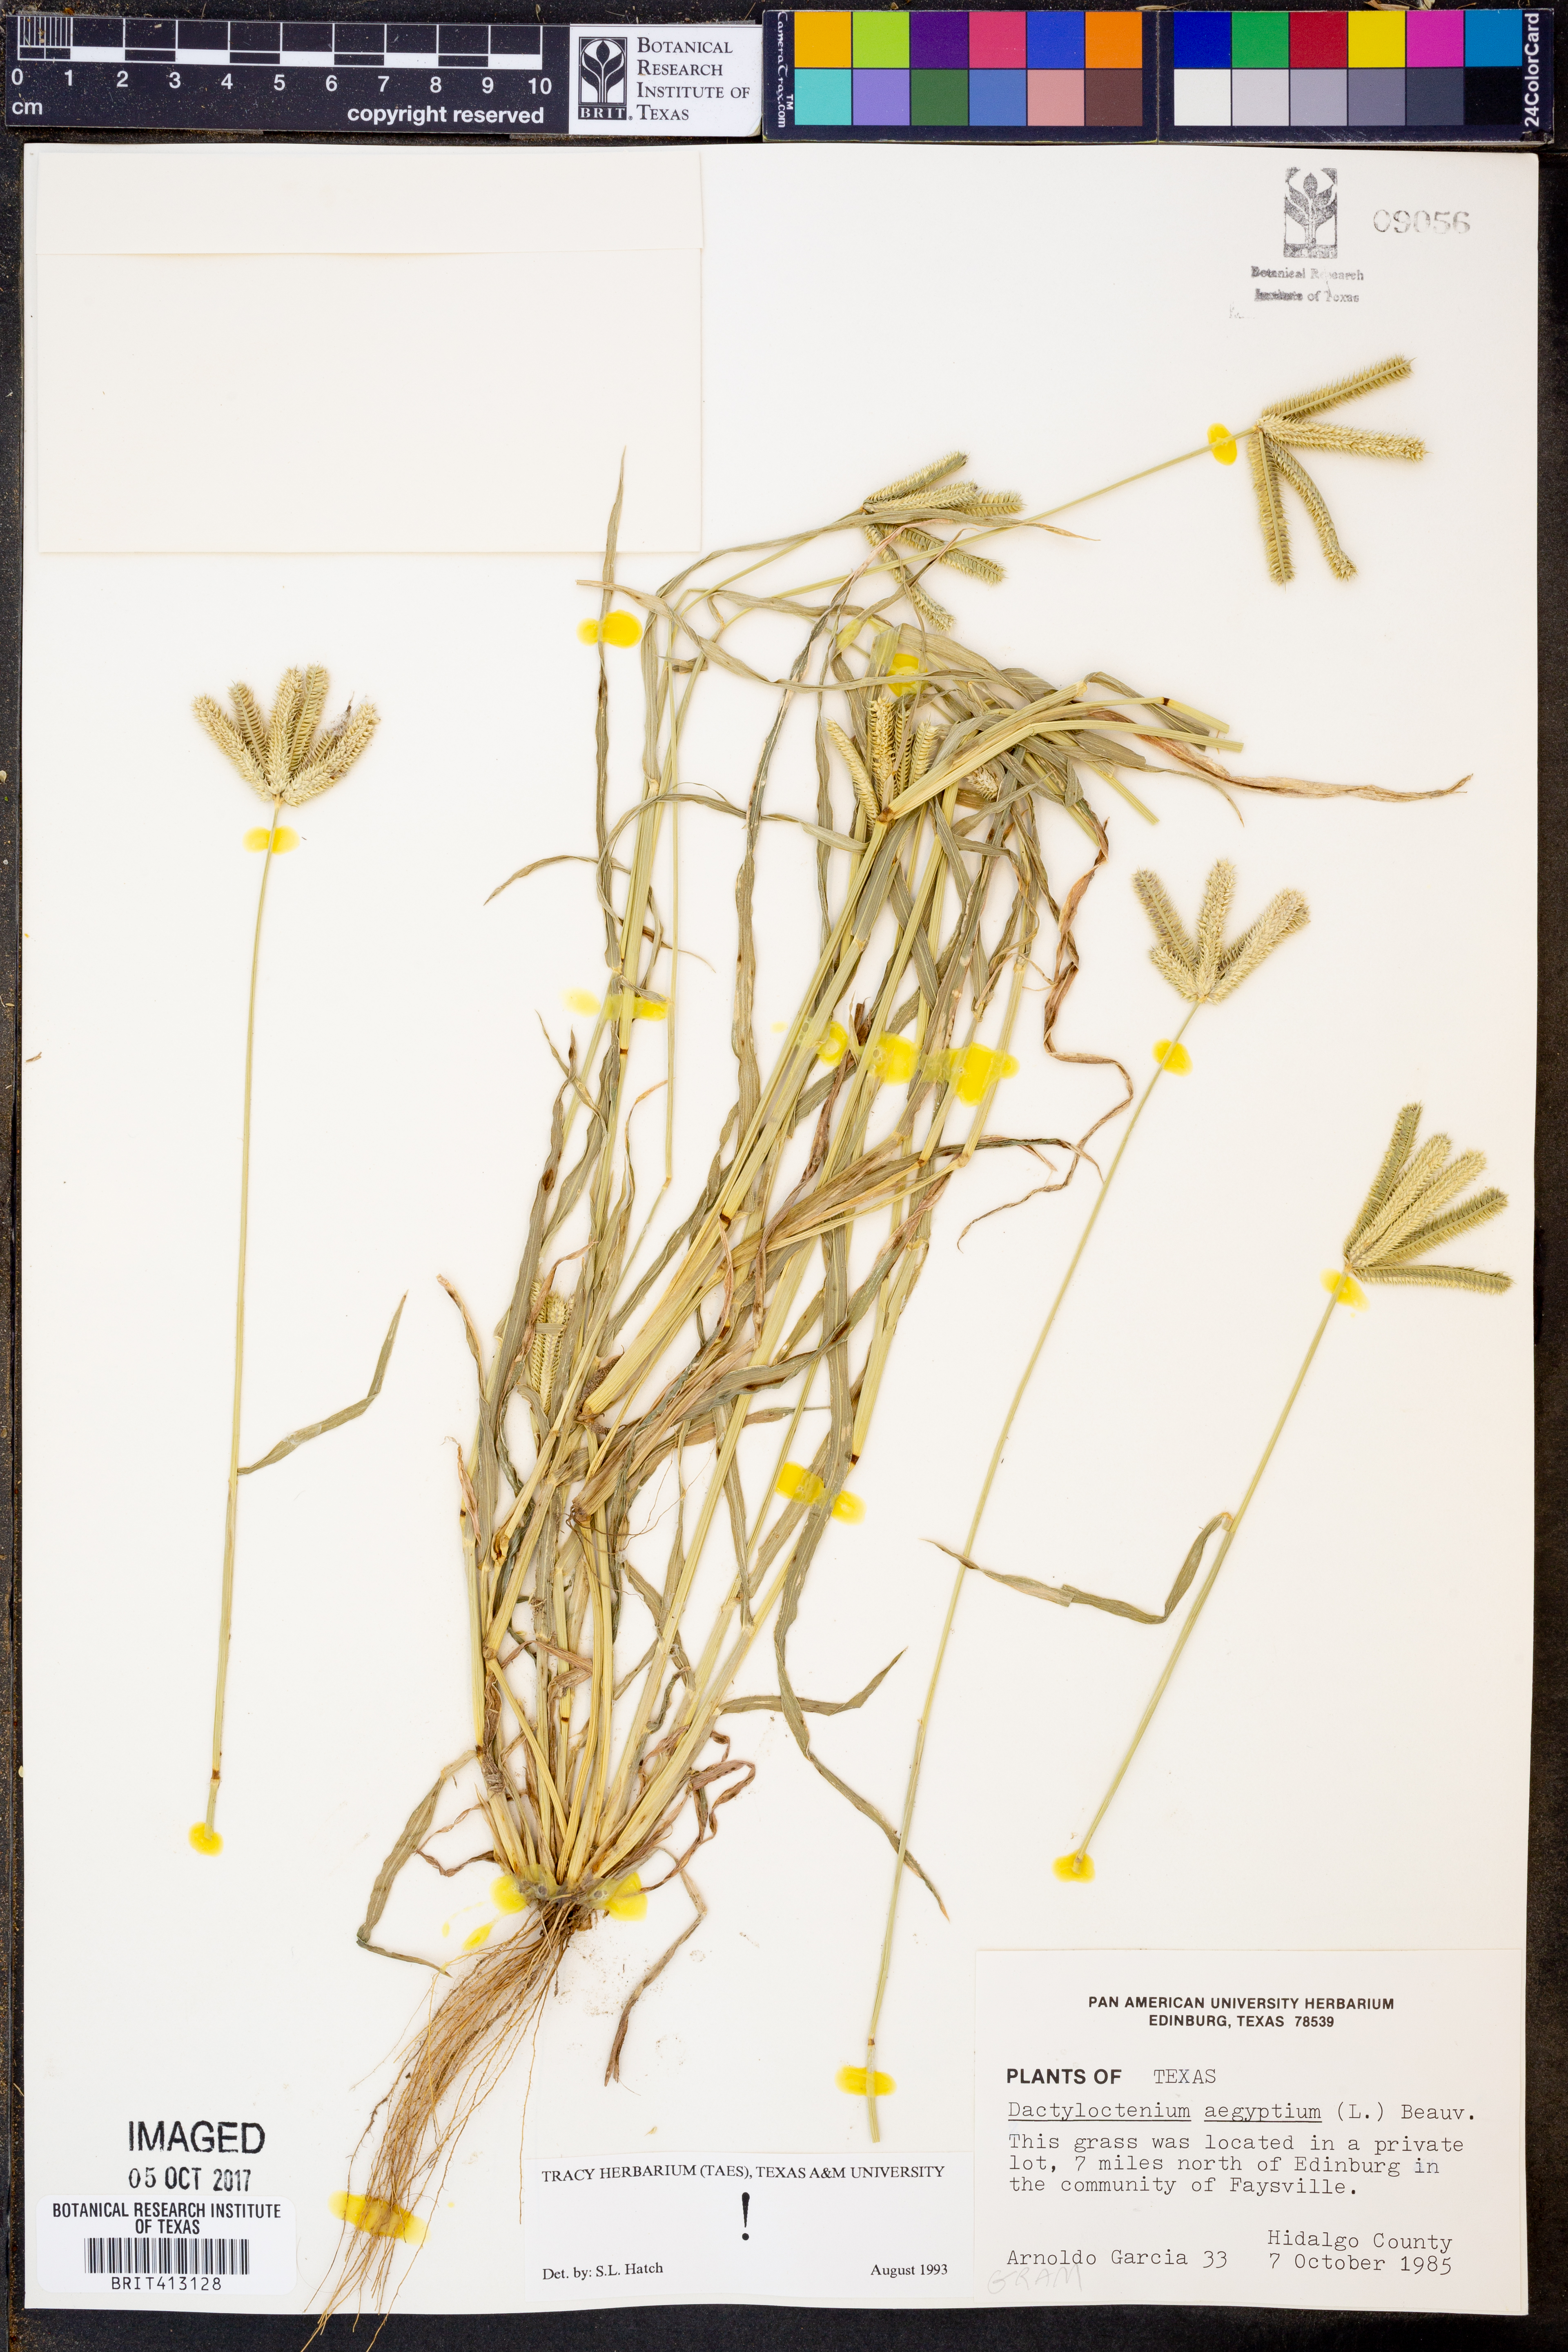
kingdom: Plantae
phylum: Tracheophyta
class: Liliopsida
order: Poales
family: Poaceae
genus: Dactyloctenium
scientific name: Dactyloctenium aegyptium
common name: Egyptian grass
